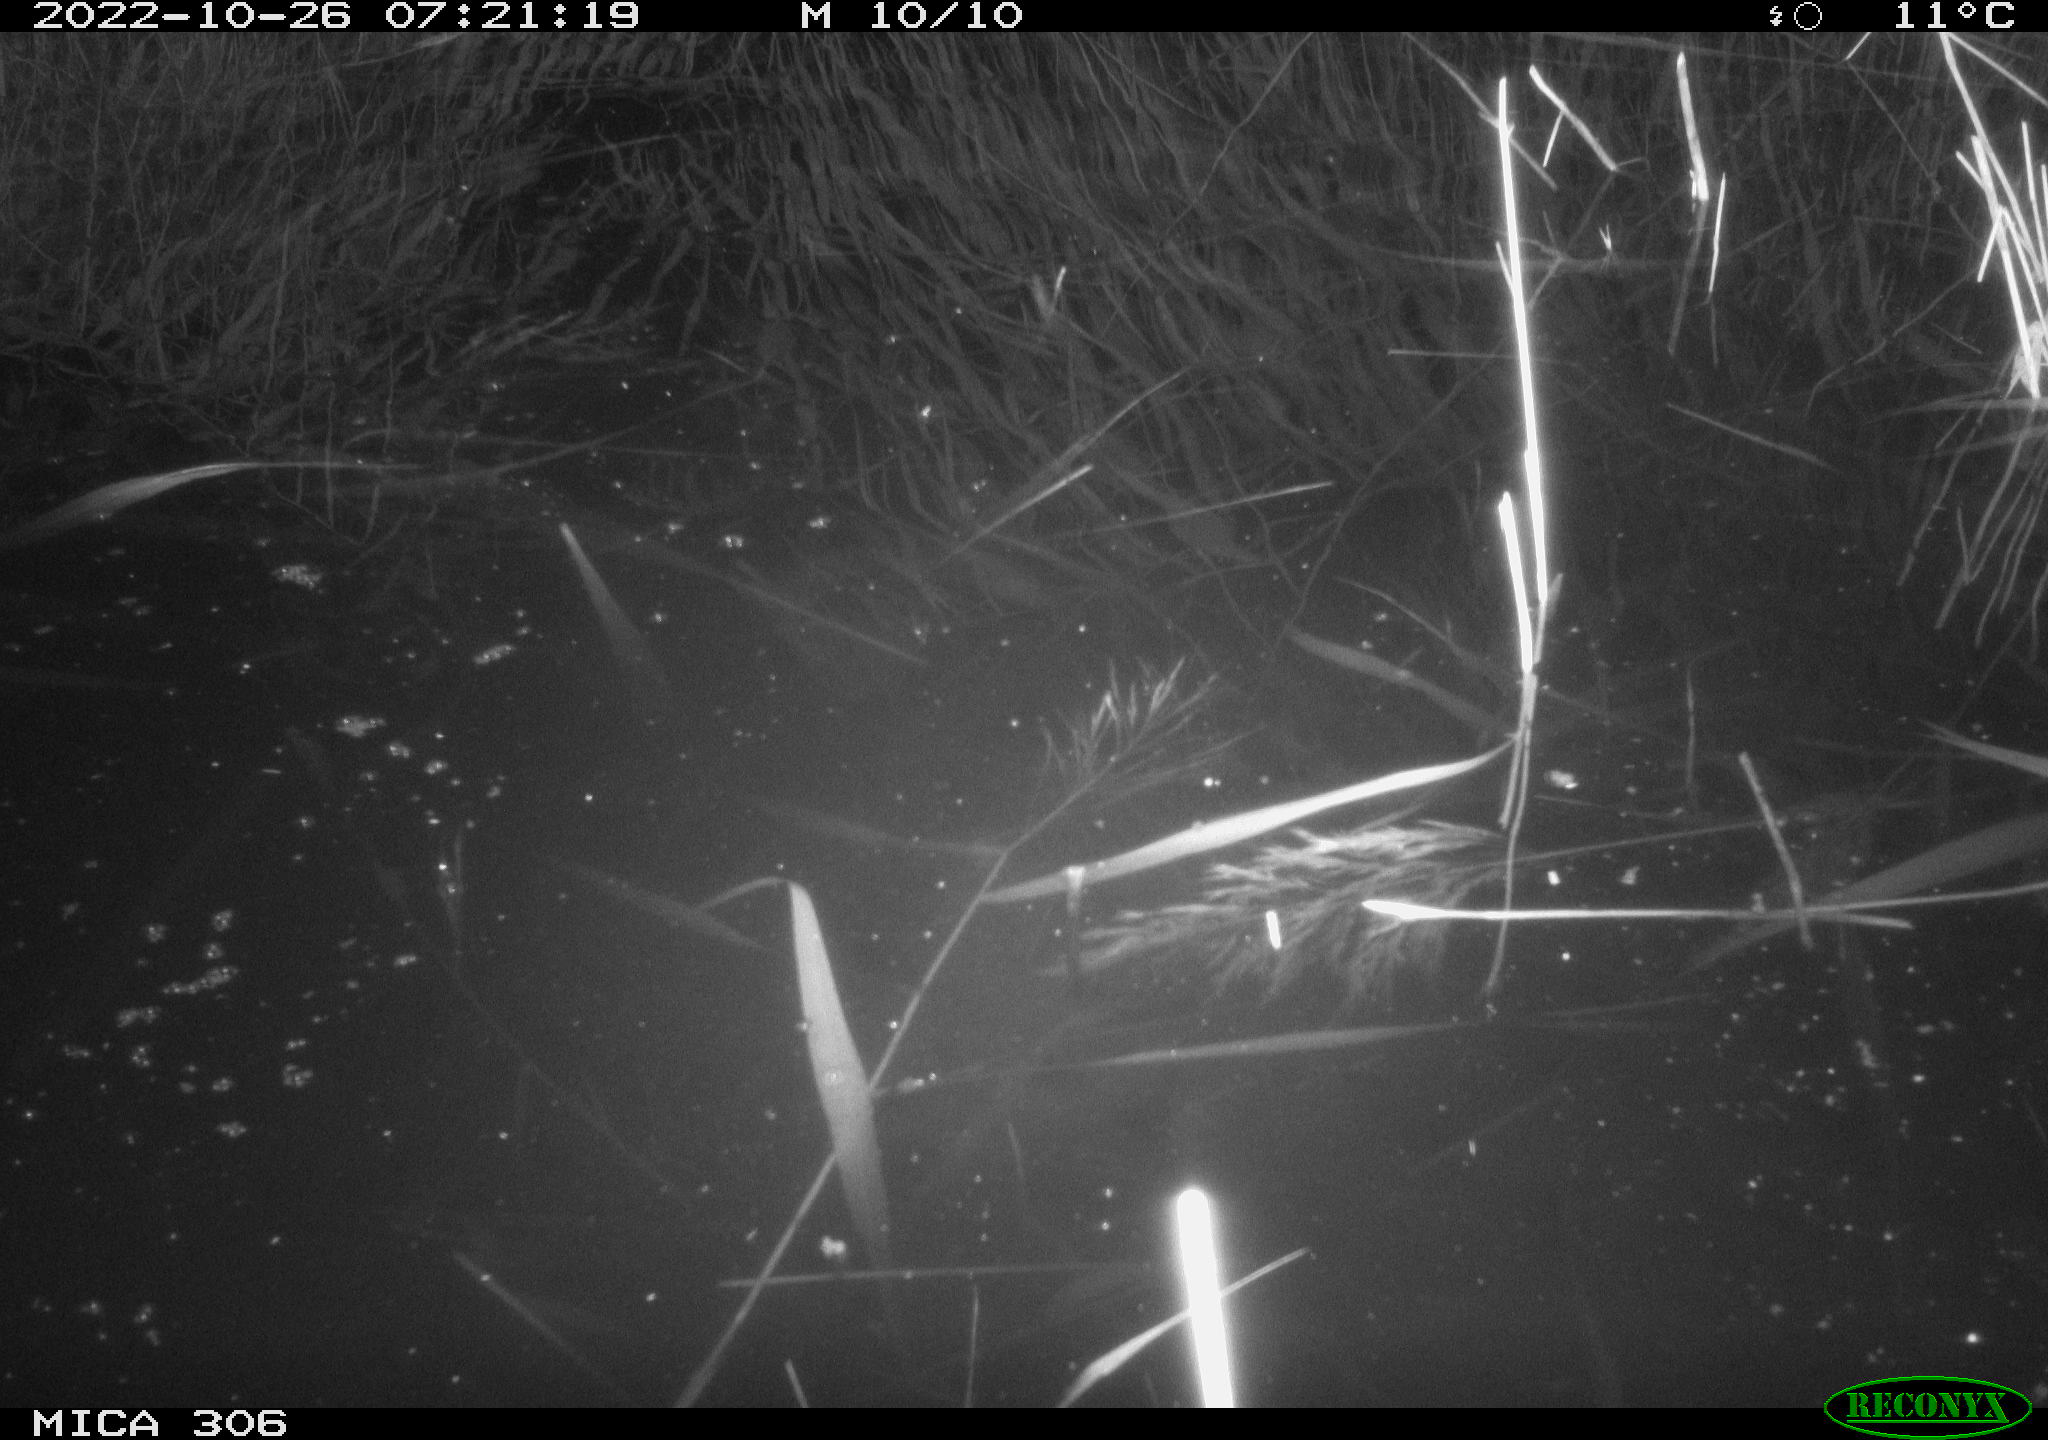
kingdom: Animalia
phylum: Chordata
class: Mammalia
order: Rodentia
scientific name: Rodentia
